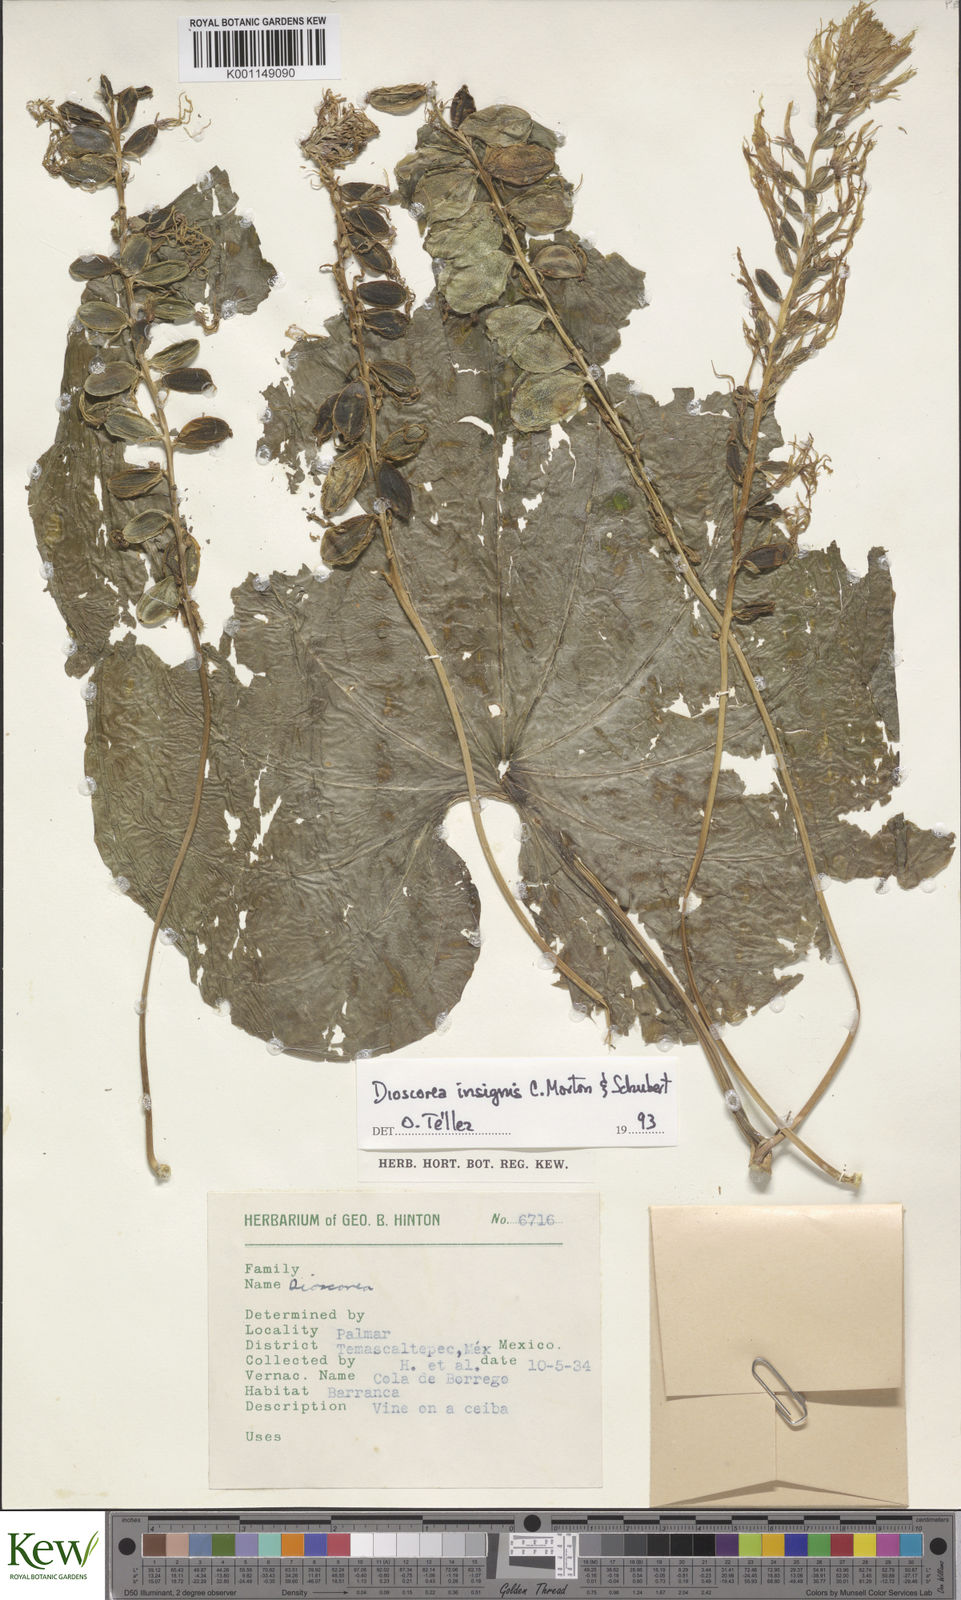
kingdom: Plantae
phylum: Tracheophyta
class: Liliopsida
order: Dioscoreales
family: Dioscoreaceae
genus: Dioscorea
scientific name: Dioscorea
